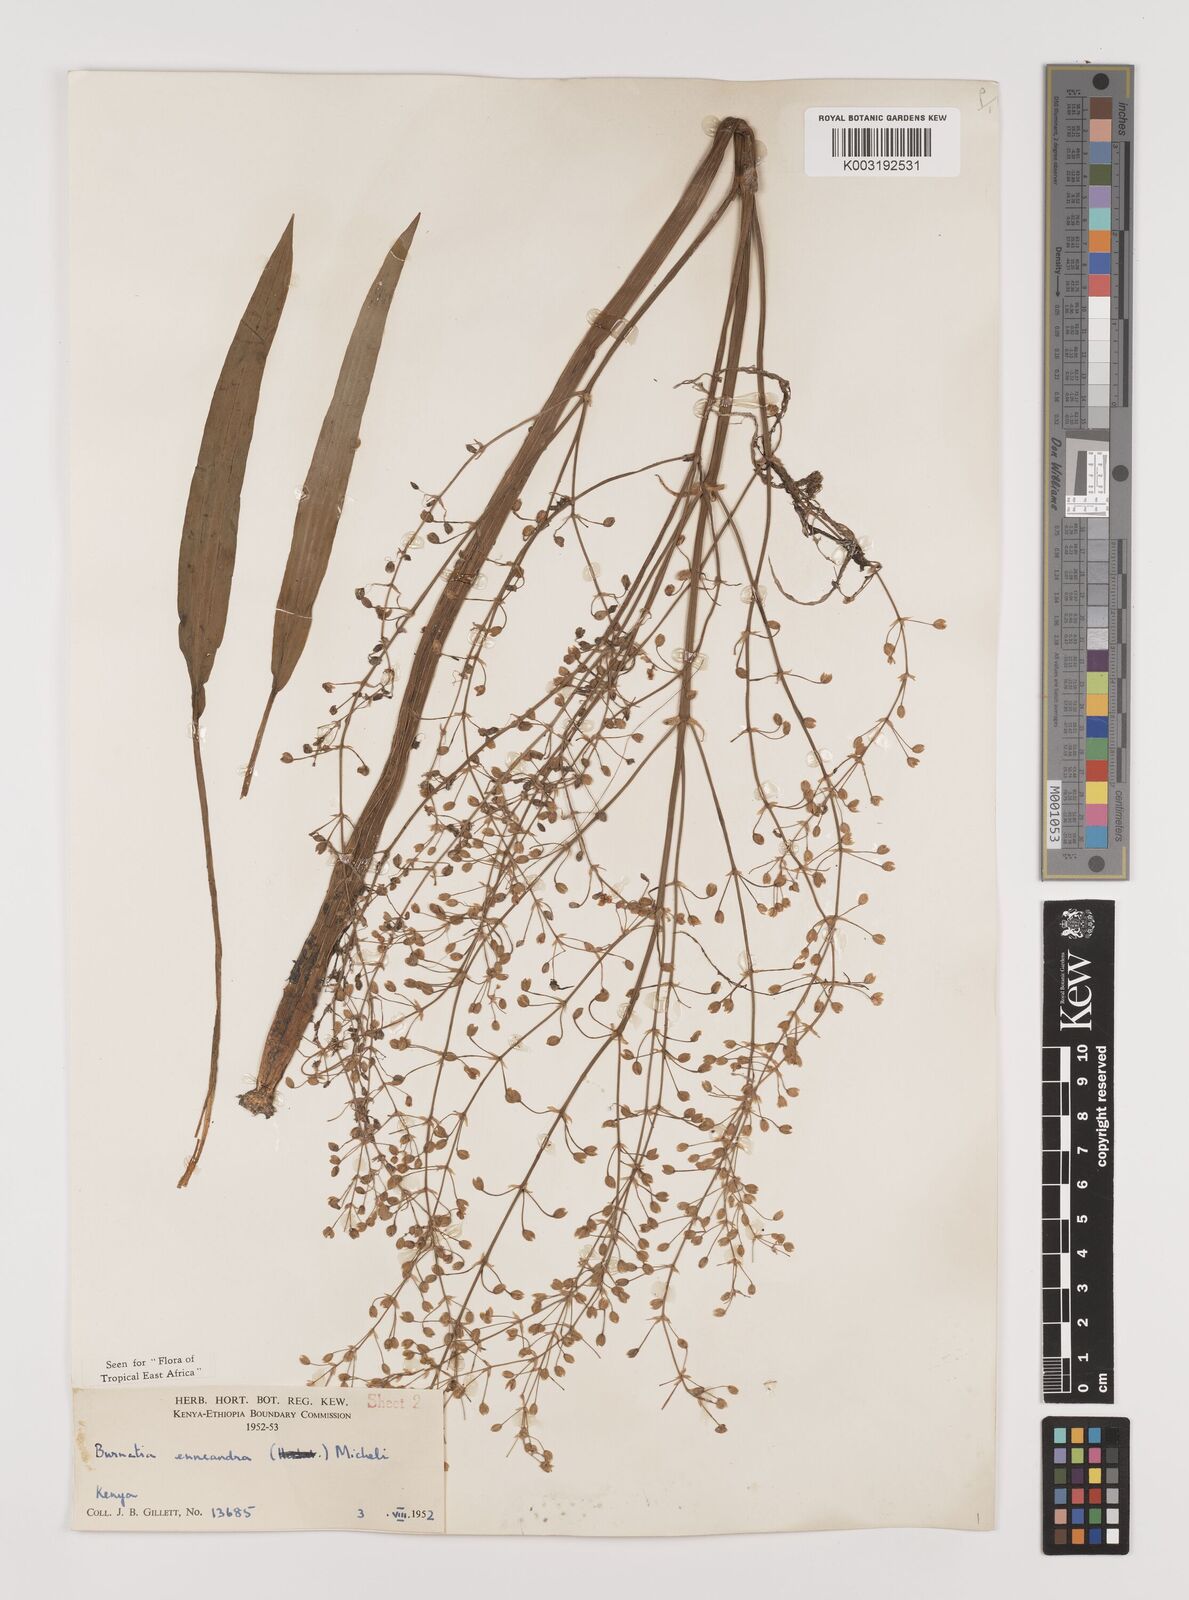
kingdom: Plantae
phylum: Tracheophyta
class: Liliopsida
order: Alismatales
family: Alismataceae
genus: Burnatia
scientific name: Burnatia enneandra
